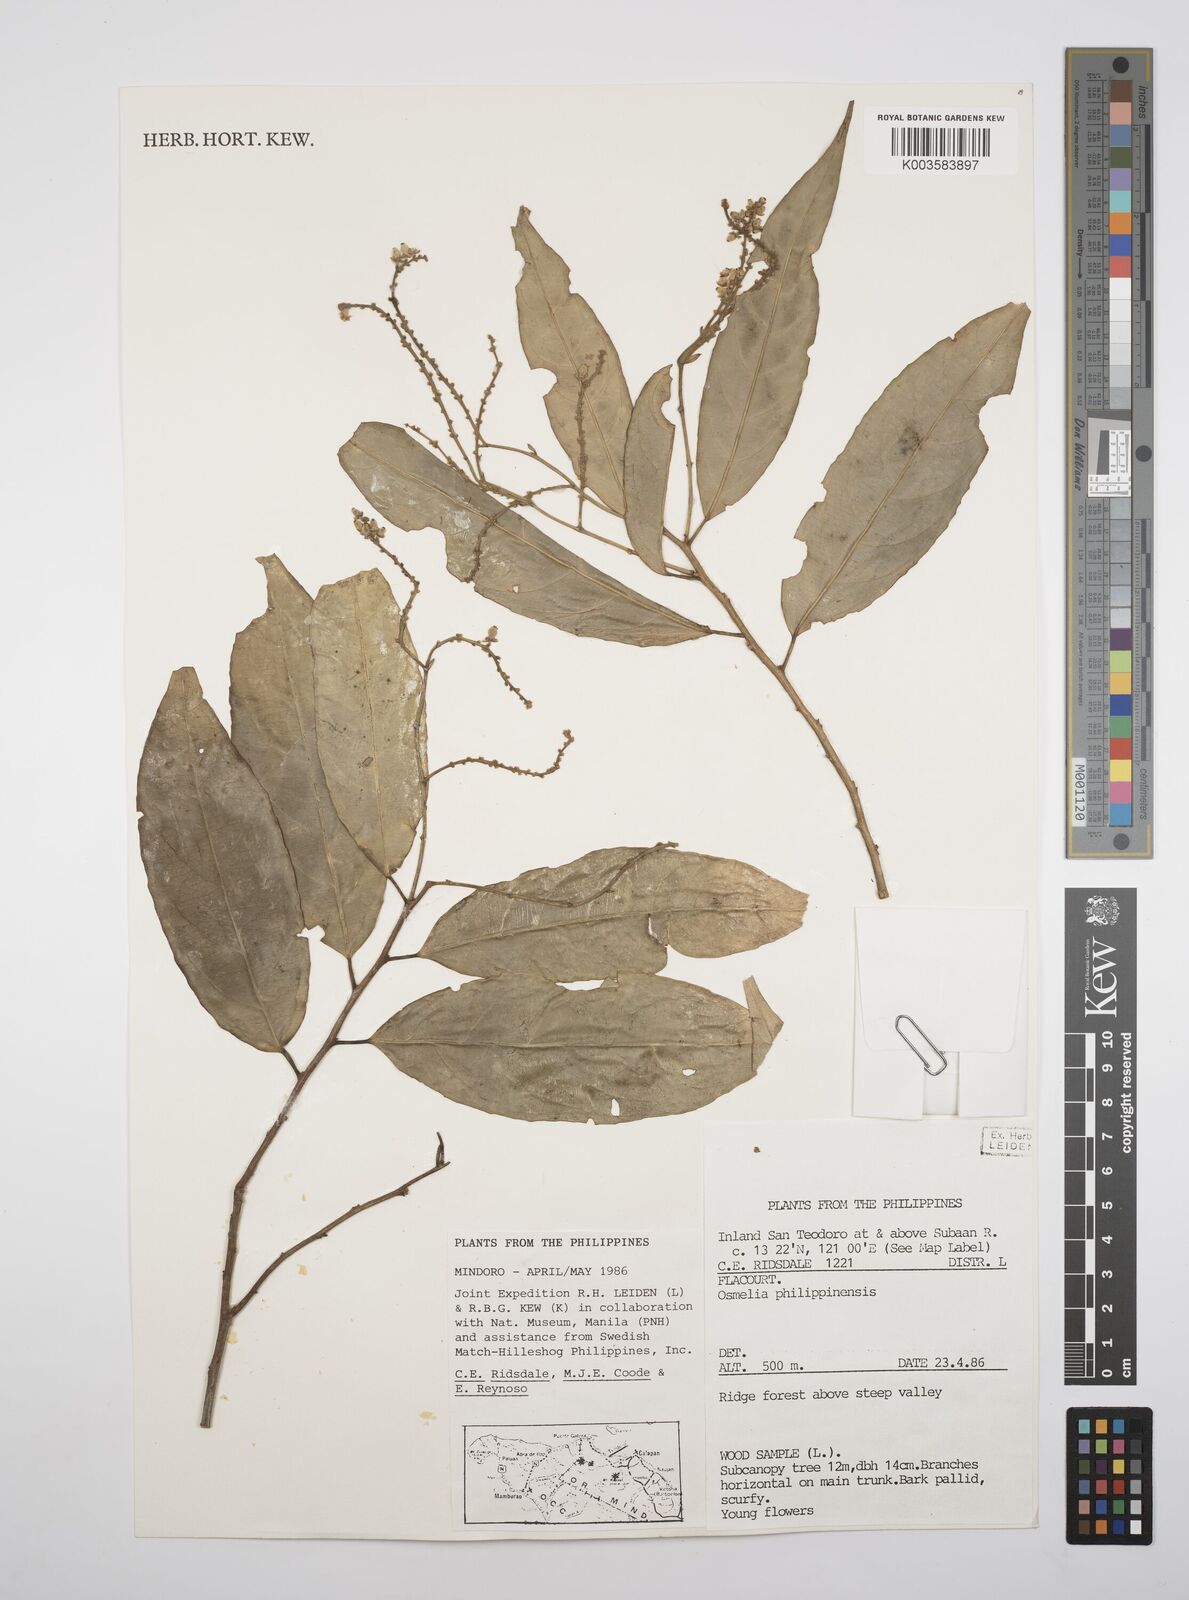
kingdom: Plantae
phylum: Tracheophyta
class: Magnoliopsida
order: Malpighiales
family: Salicaceae
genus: Osmelia
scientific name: Osmelia philippina
